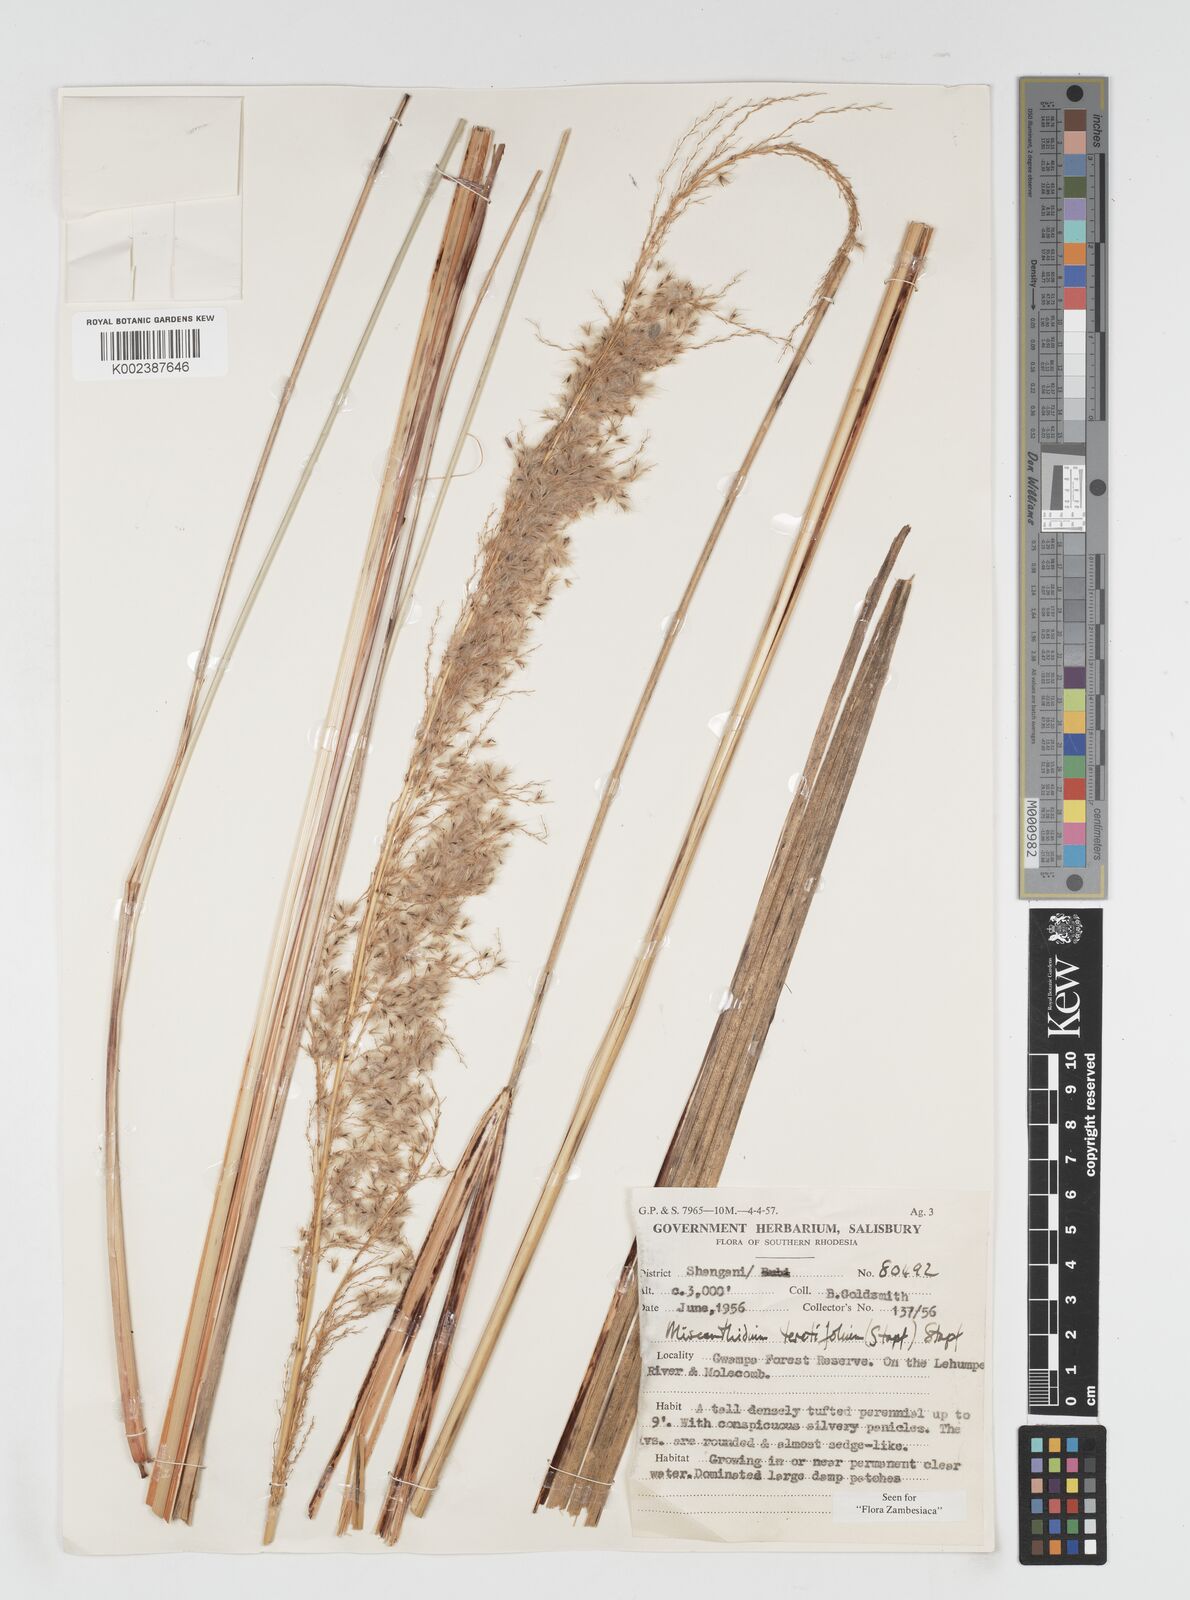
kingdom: Plantae
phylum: Tracheophyta
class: Liliopsida
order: Poales
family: Poaceae
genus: Miscanthidium
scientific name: Miscanthidium junceum
